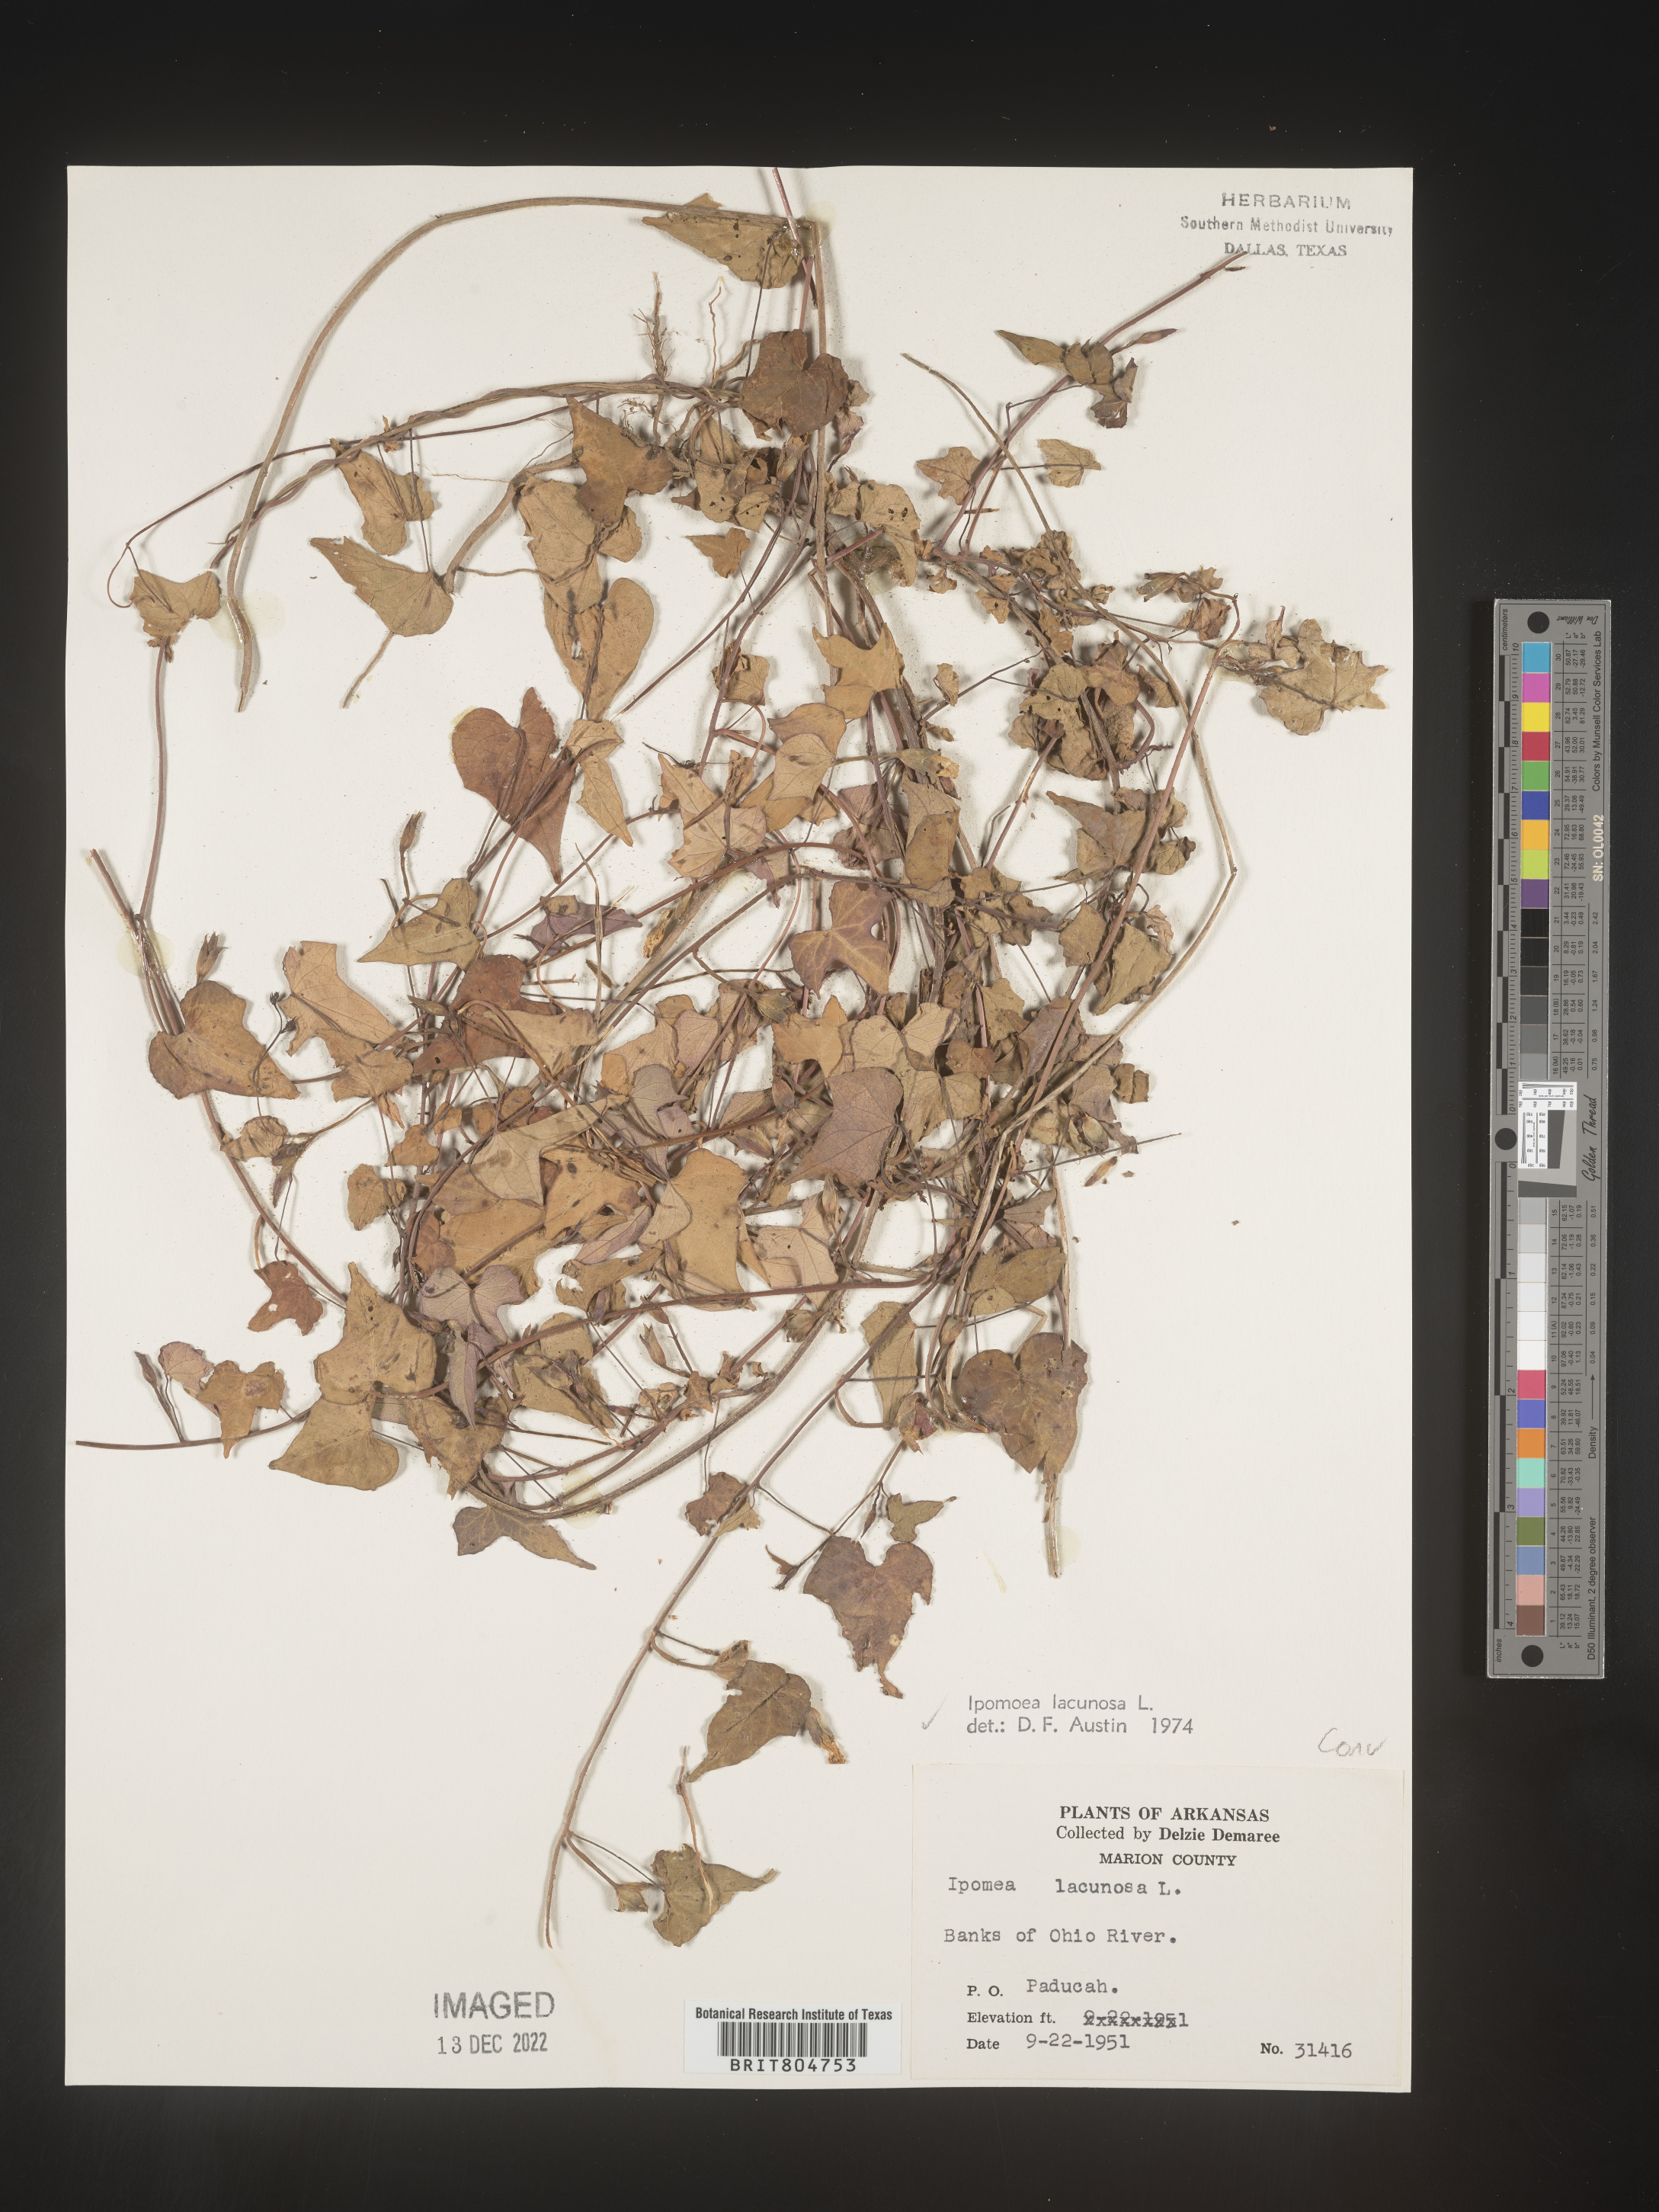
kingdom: Plantae
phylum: Tracheophyta
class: Magnoliopsida
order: Solanales
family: Convolvulaceae
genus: Ipomoea
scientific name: Ipomoea lacunosa
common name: White morning-glory
